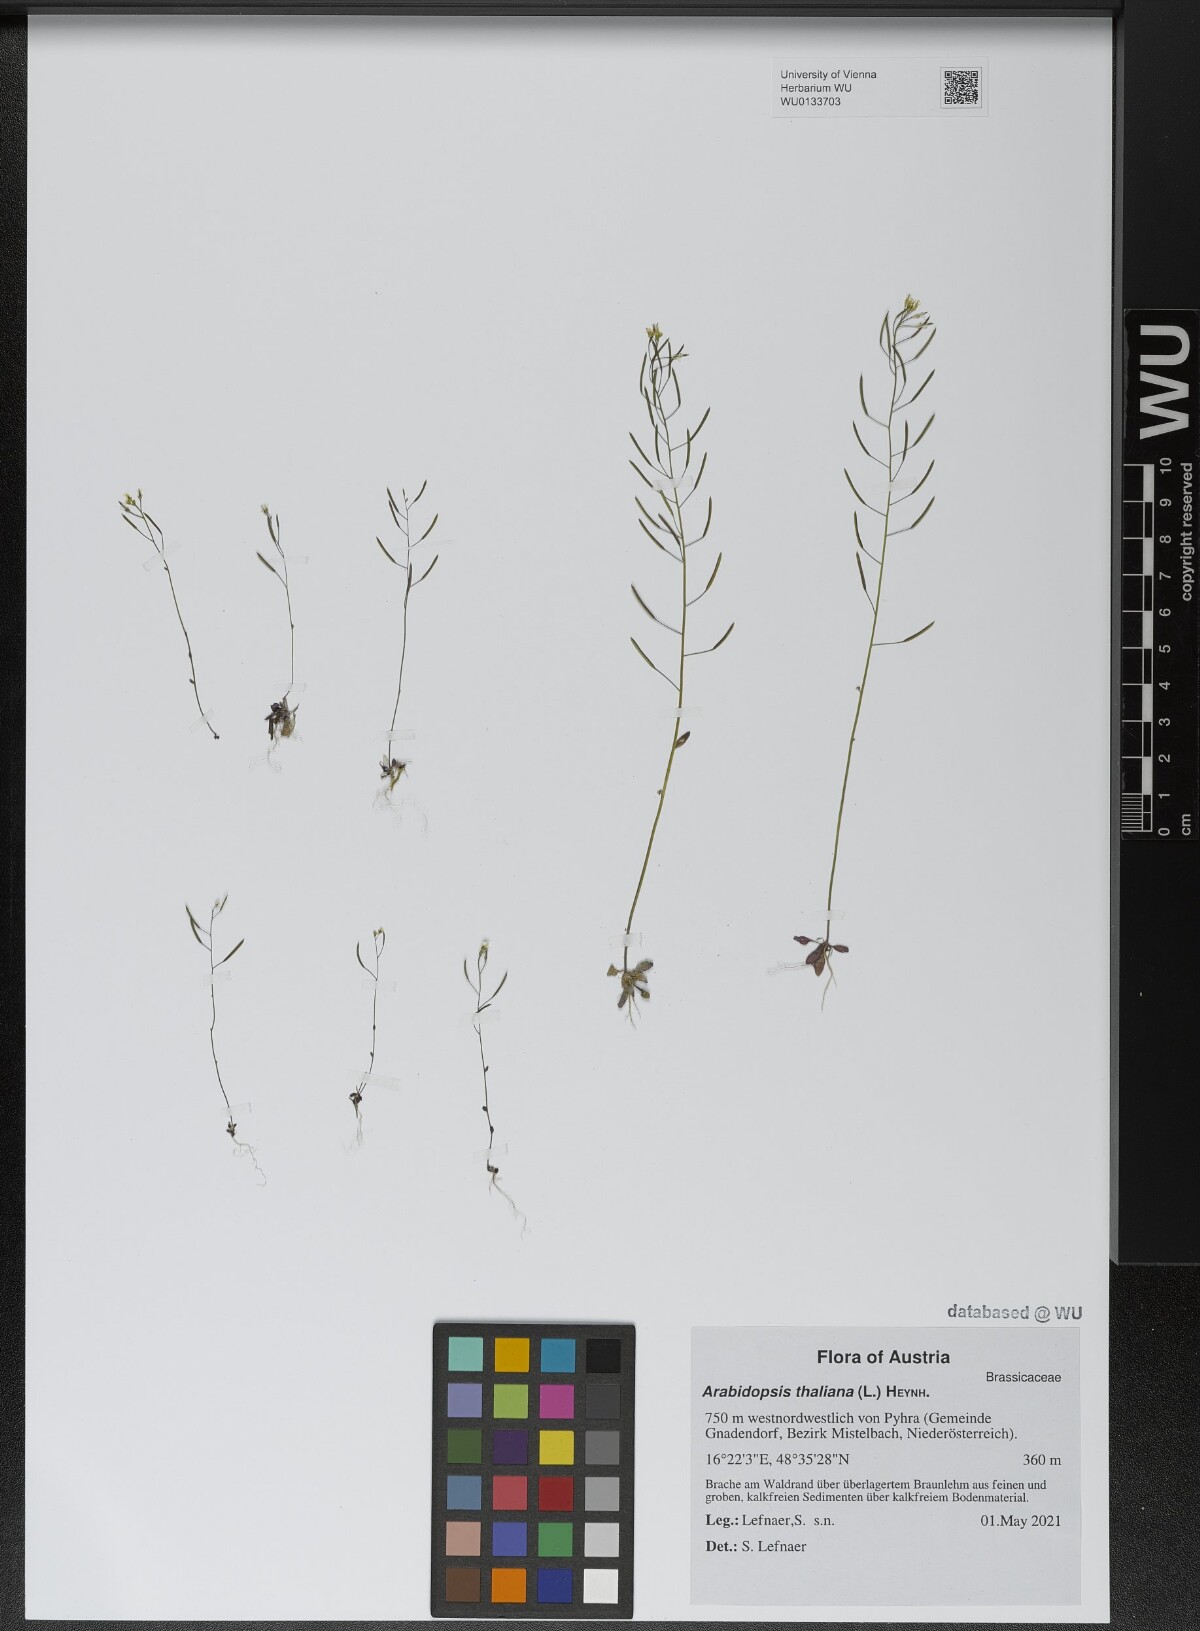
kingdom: Plantae
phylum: Tracheophyta
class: Magnoliopsida
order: Brassicales
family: Brassicaceae
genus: Arabidopsis
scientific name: Arabidopsis thaliana
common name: Thale cress
